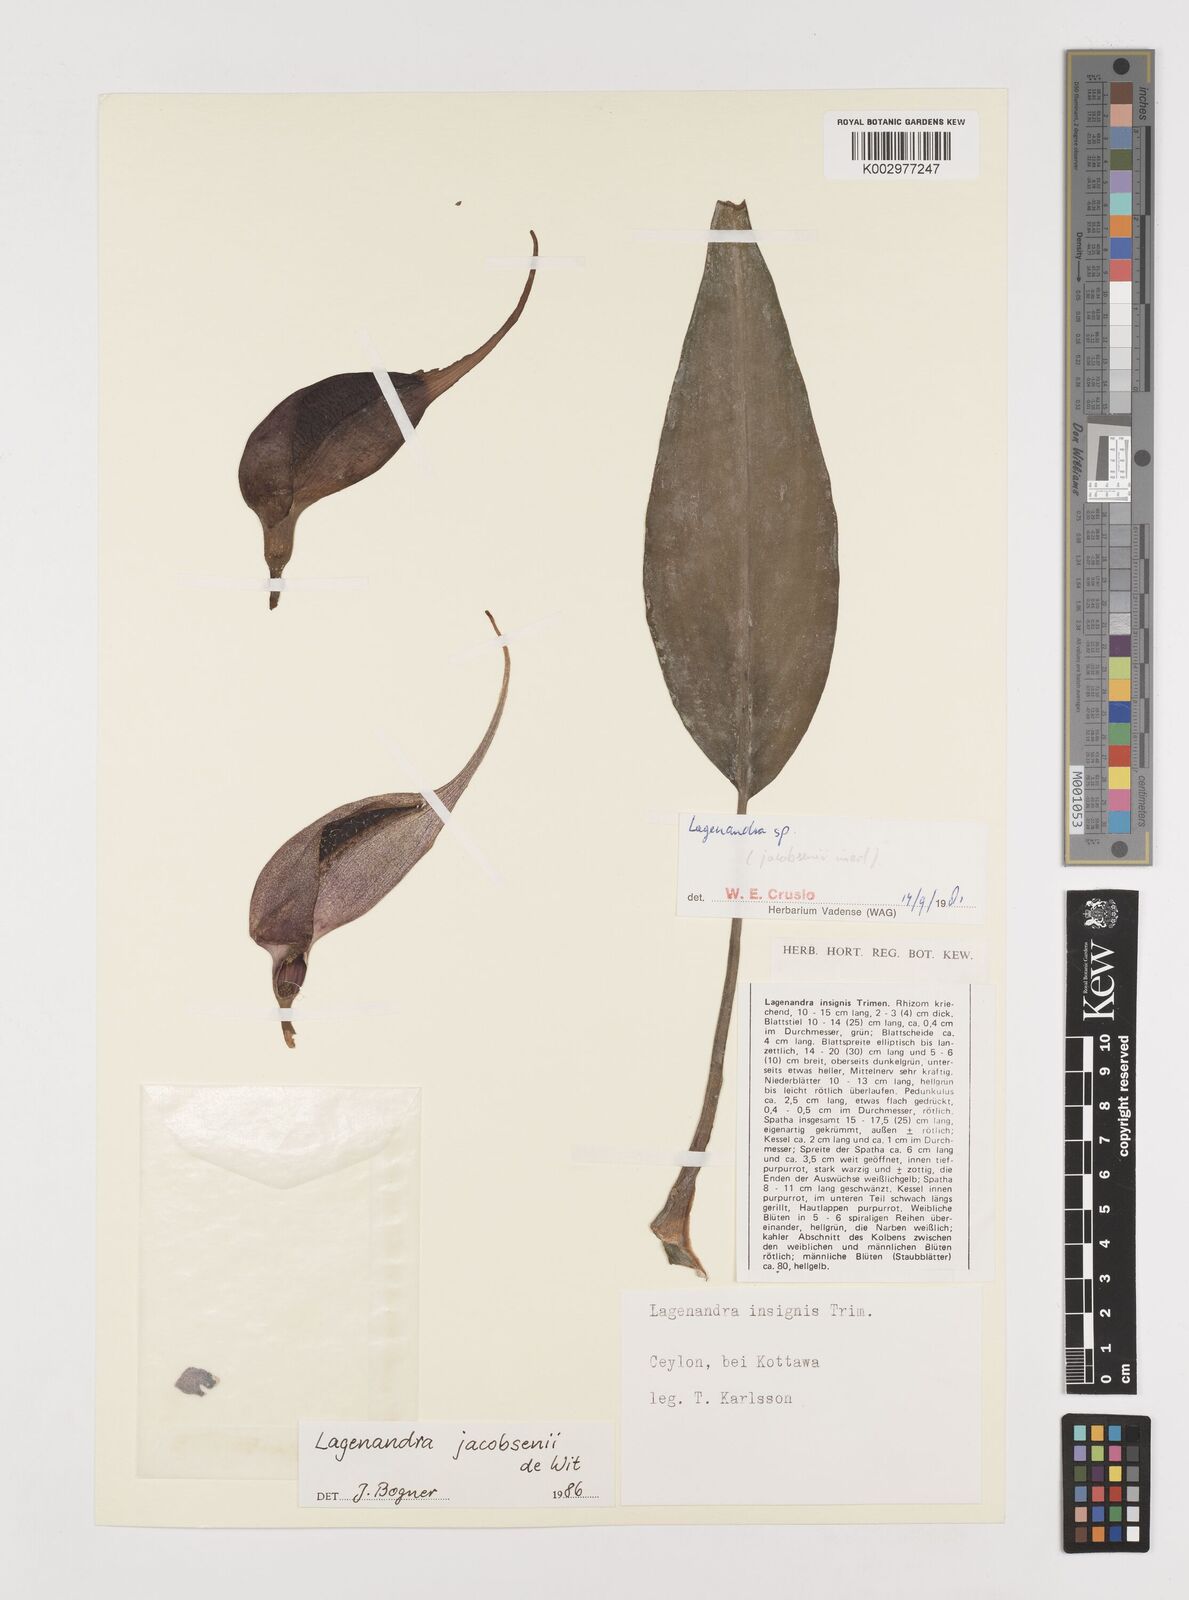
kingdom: Plantae
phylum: Tracheophyta
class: Liliopsida
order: Alismatales
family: Araceae
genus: Lagenandra
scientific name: Lagenandra jacobsenii
